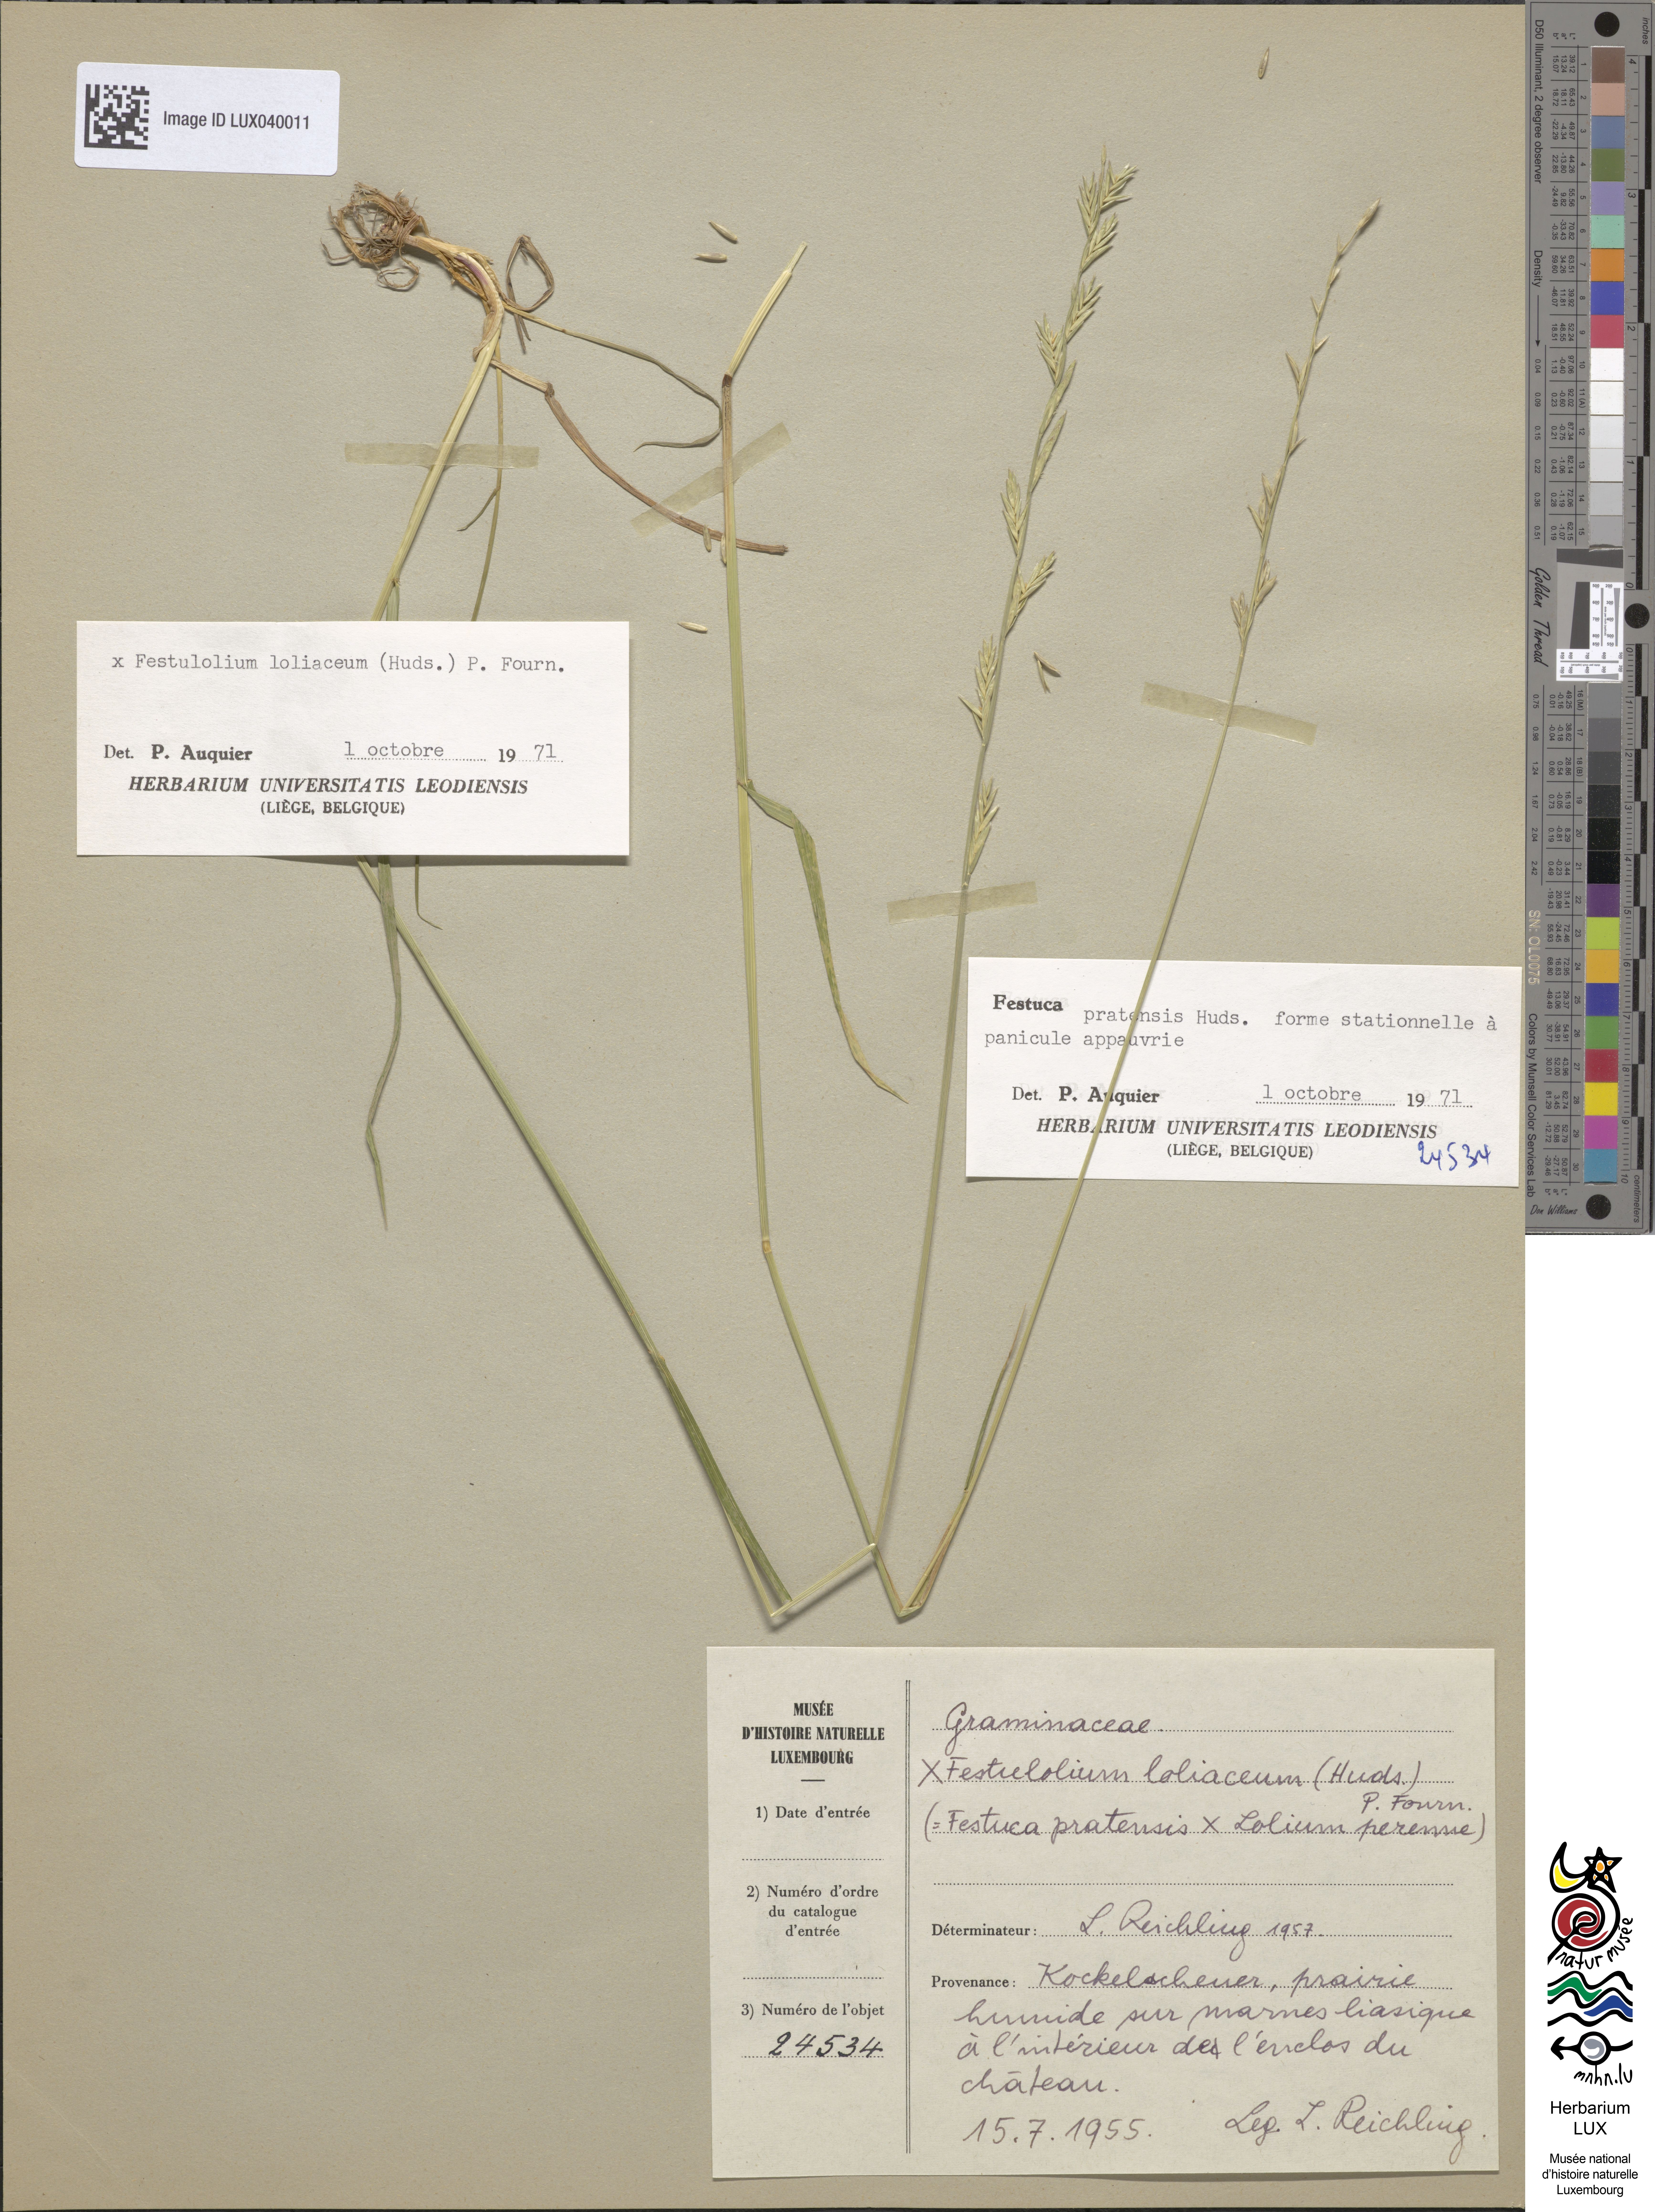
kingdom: Plantae
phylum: Tracheophyta
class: Liliopsida
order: Poales
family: Poaceae
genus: Lolium
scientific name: Lolium elongatum
